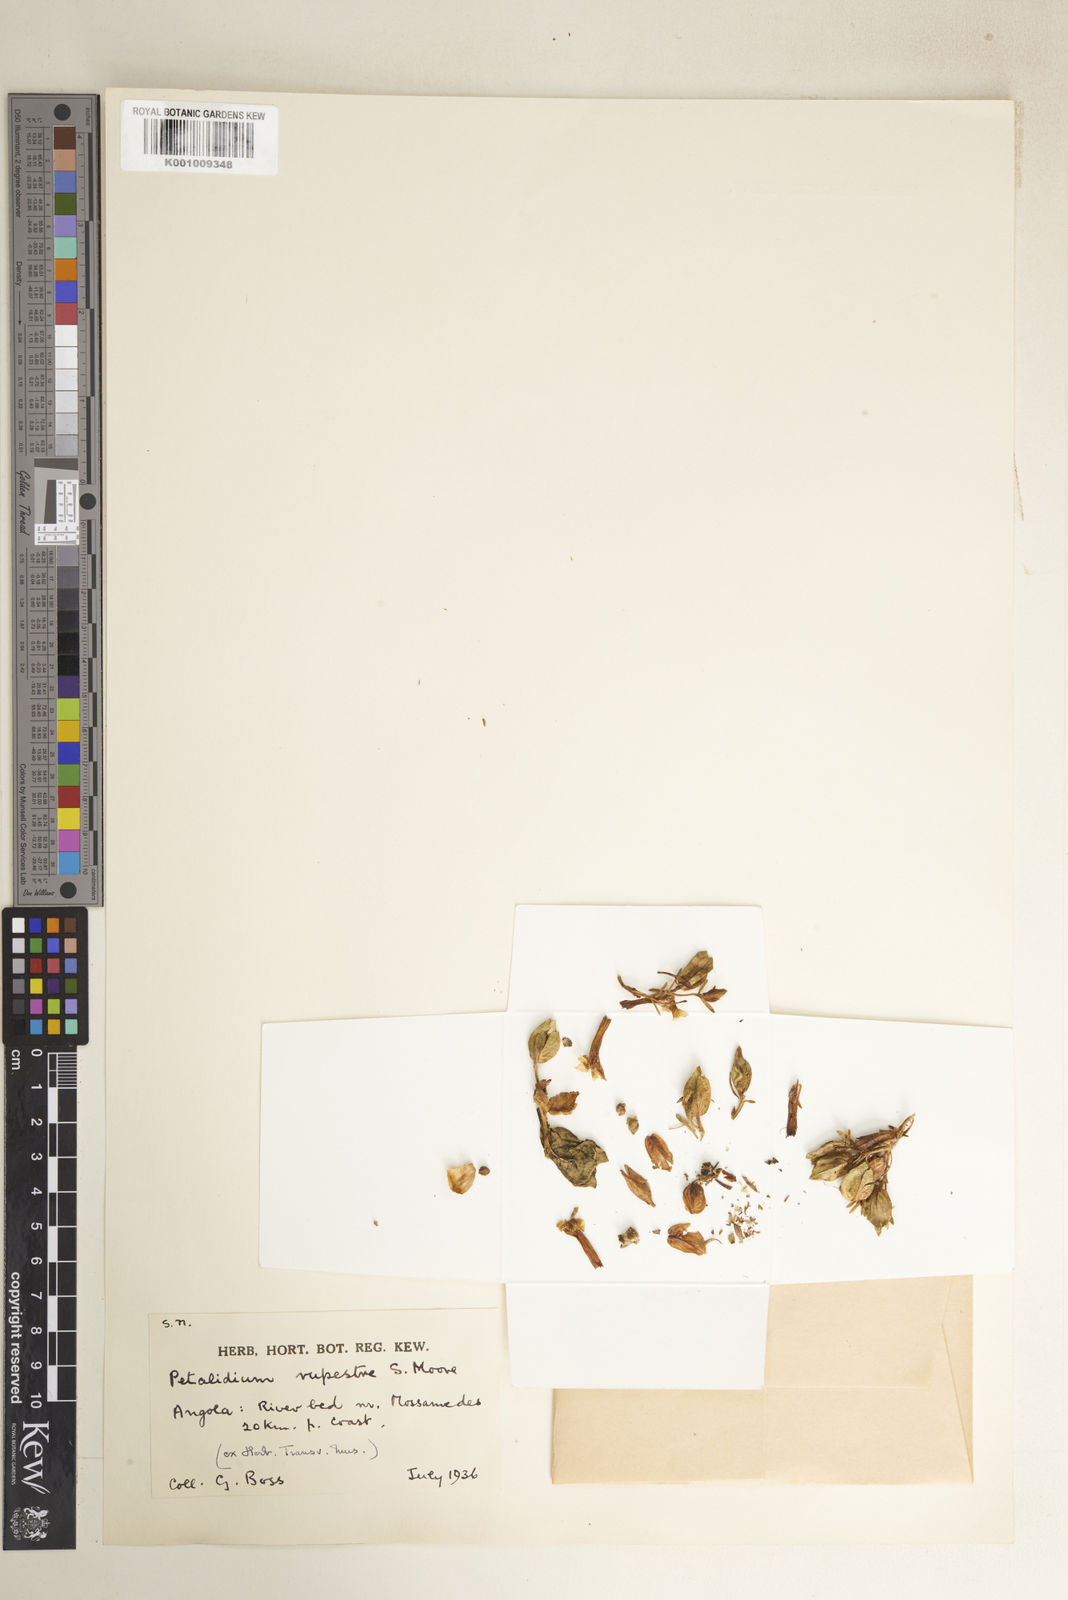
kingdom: Plantae
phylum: Tracheophyta
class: Magnoliopsida
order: Lamiales
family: Acanthaceae
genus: Petalidium
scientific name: Petalidium rupestre
